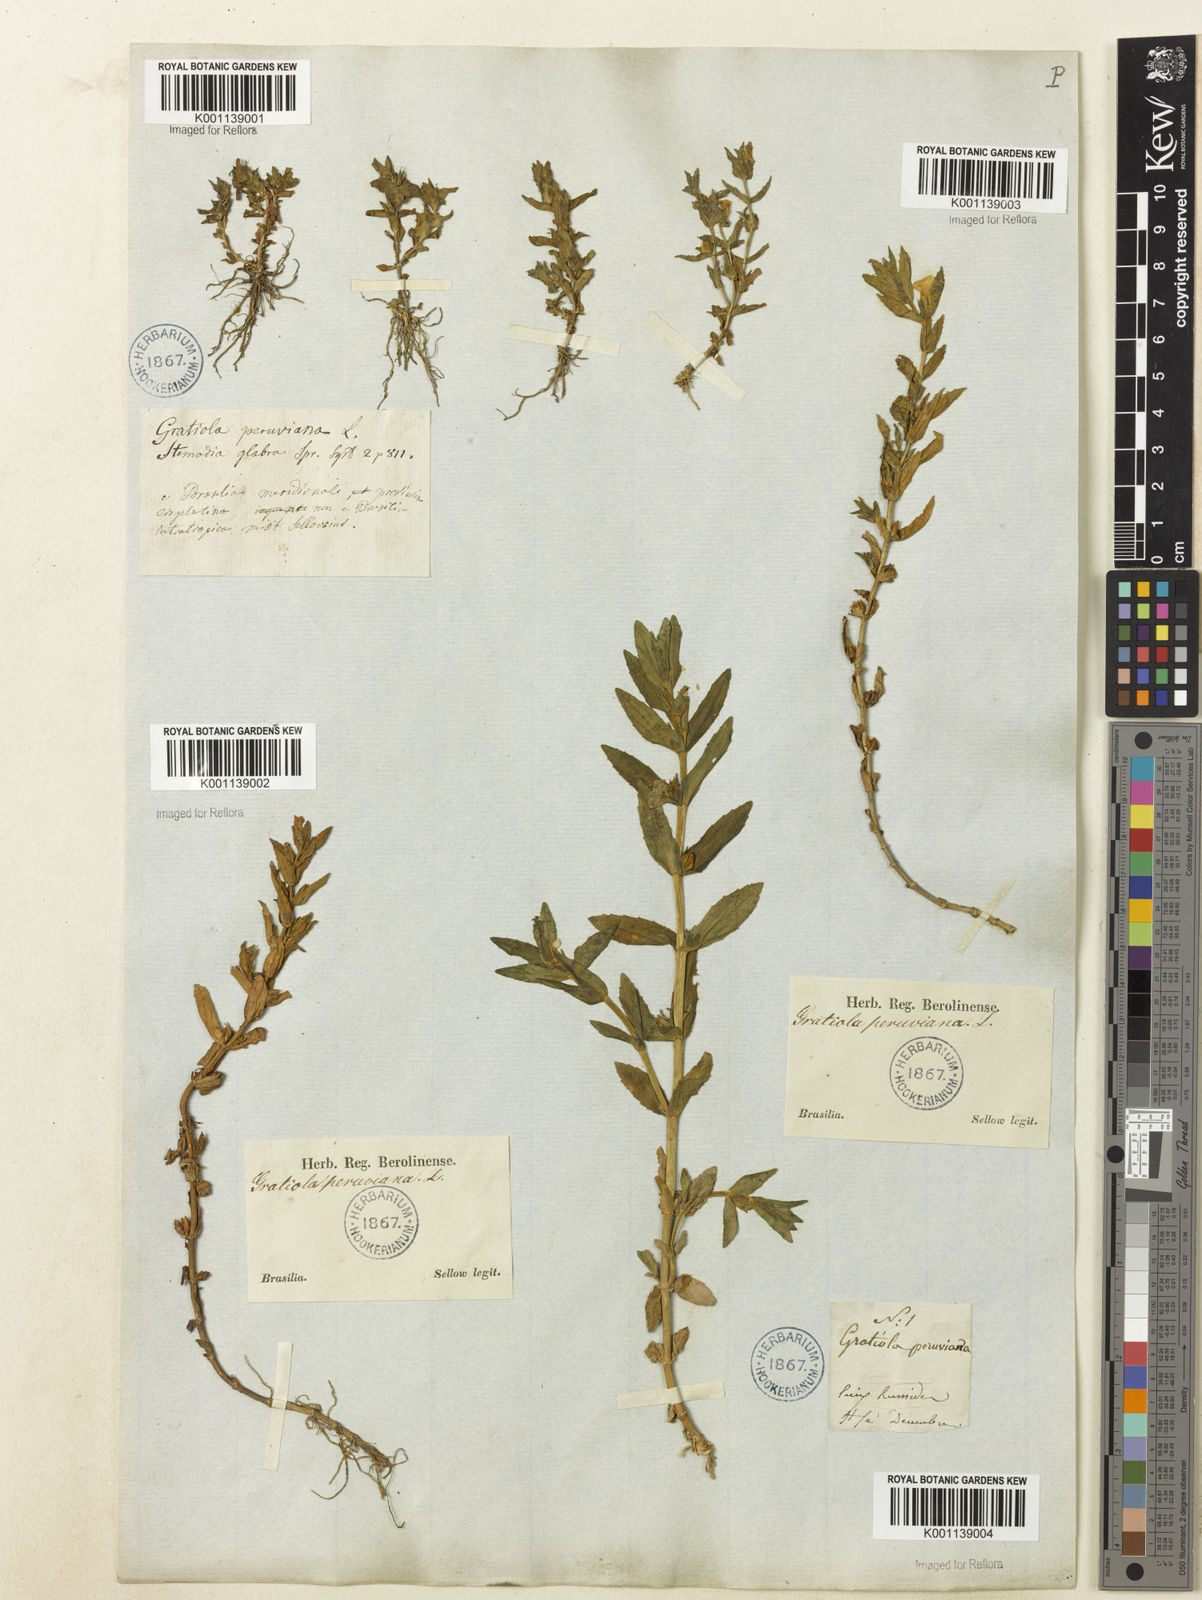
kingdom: Plantae
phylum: Tracheophyta
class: Magnoliopsida
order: Lamiales
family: Plantaginaceae
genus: Gratiola
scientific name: Gratiola peruviana
